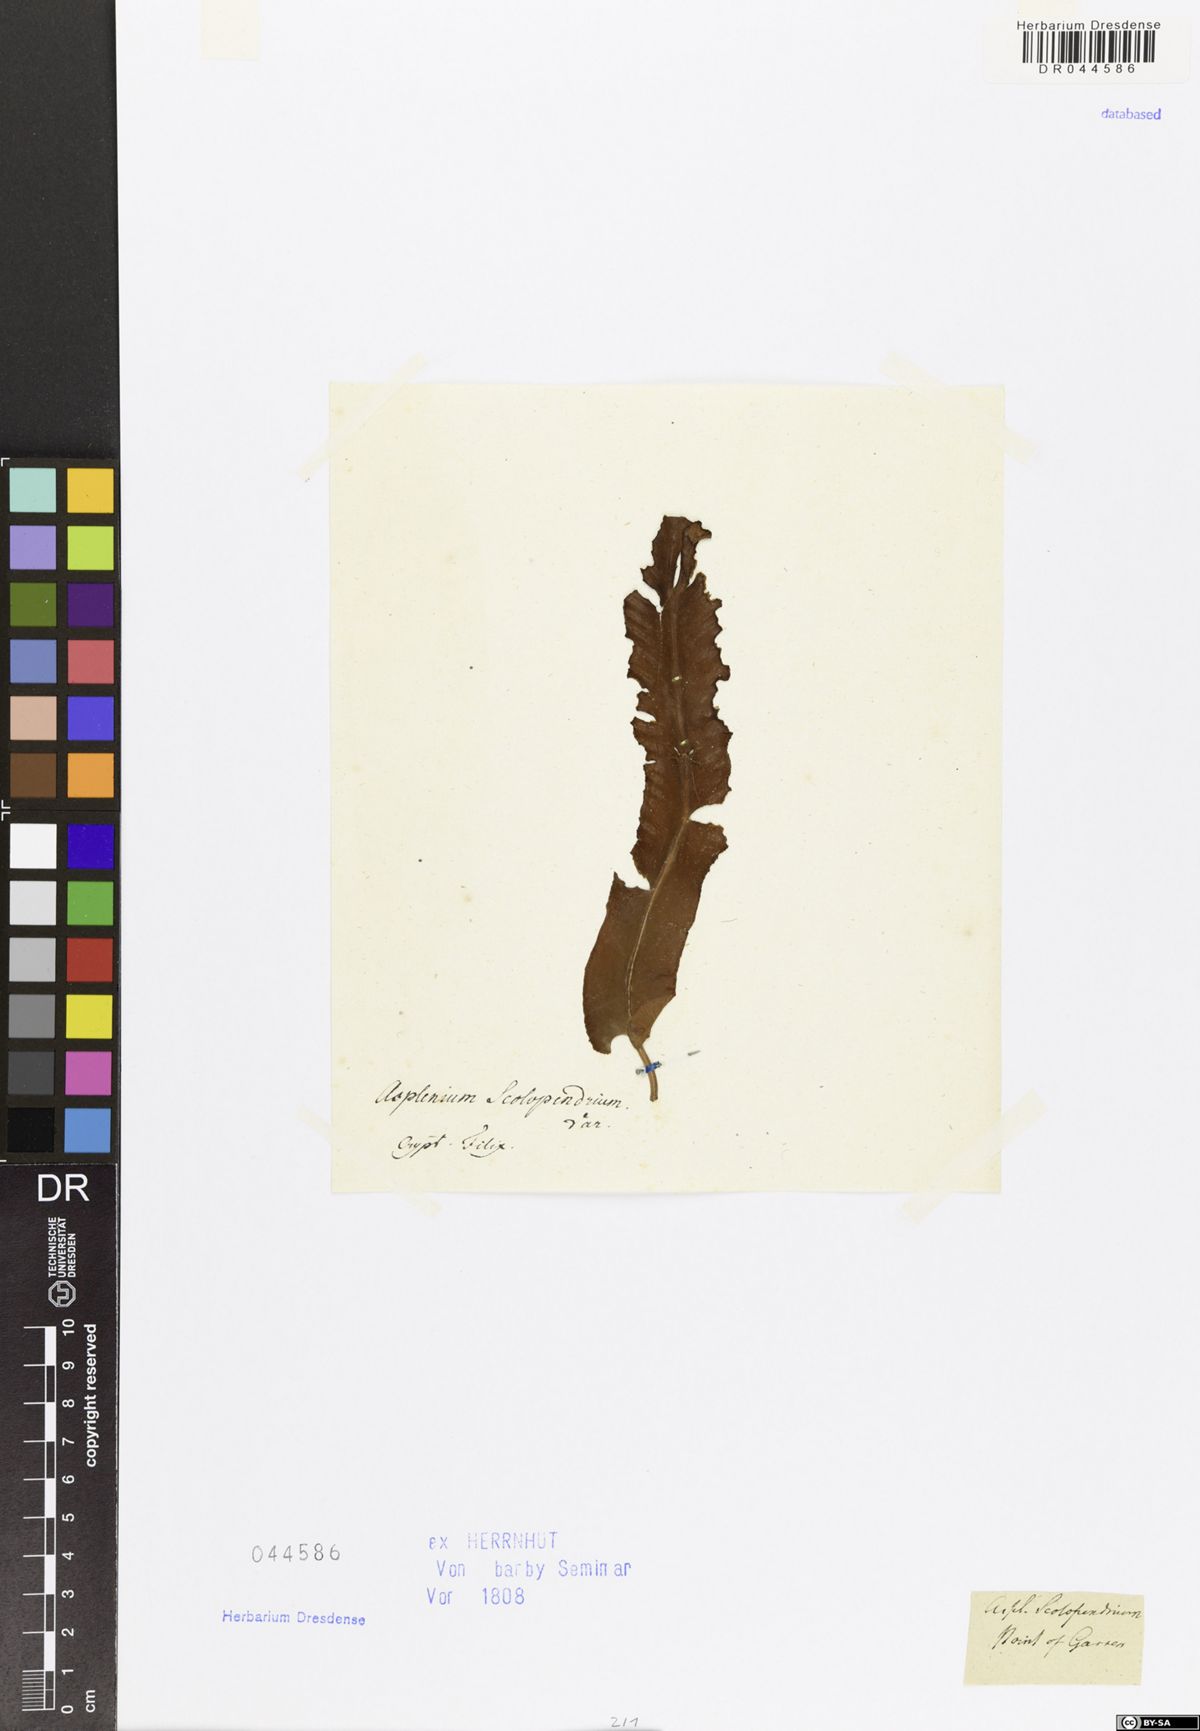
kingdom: Plantae
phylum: Tracheophyta
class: Polypodiopsida
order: Polypodiales
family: Aspleniaceae
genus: Asplenium
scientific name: Asplenium scolopendrium
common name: Hart's-tongue fern
